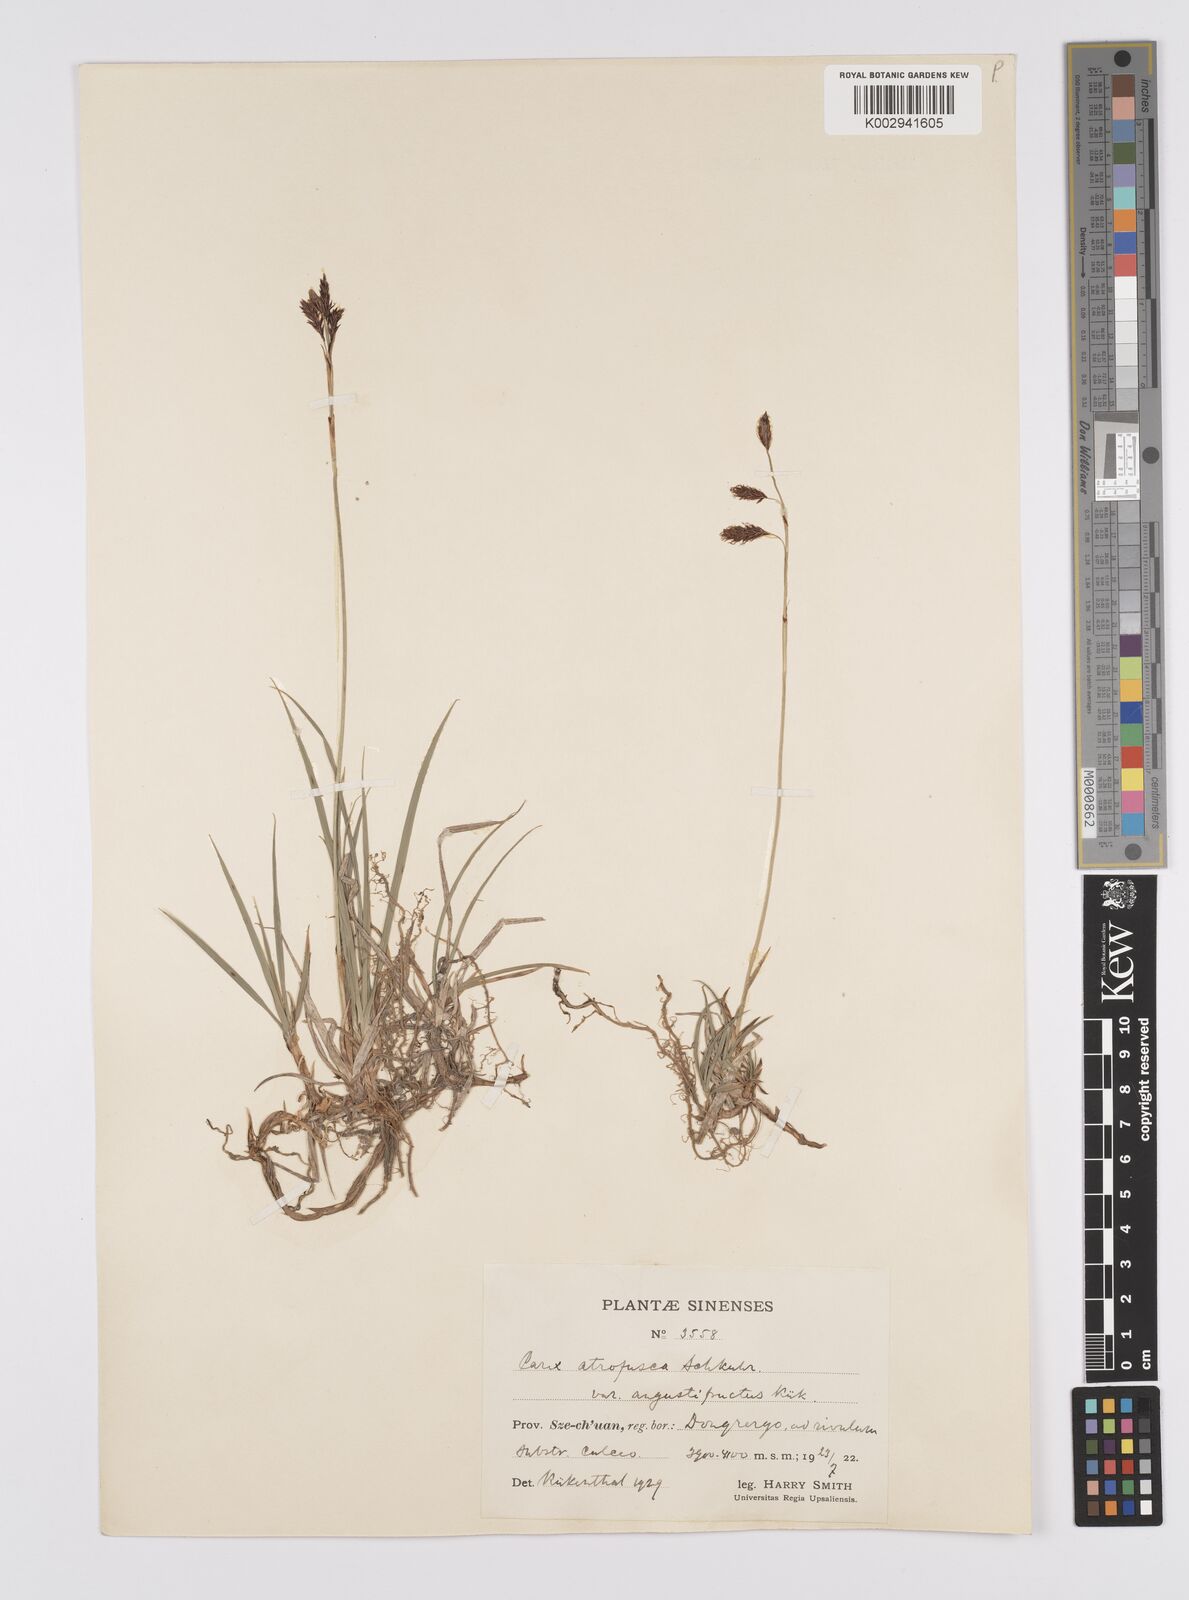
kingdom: Plantae
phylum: Tracheophyta
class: Liliopsida
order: Poales
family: Cyperaceae
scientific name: Cyperaceae
